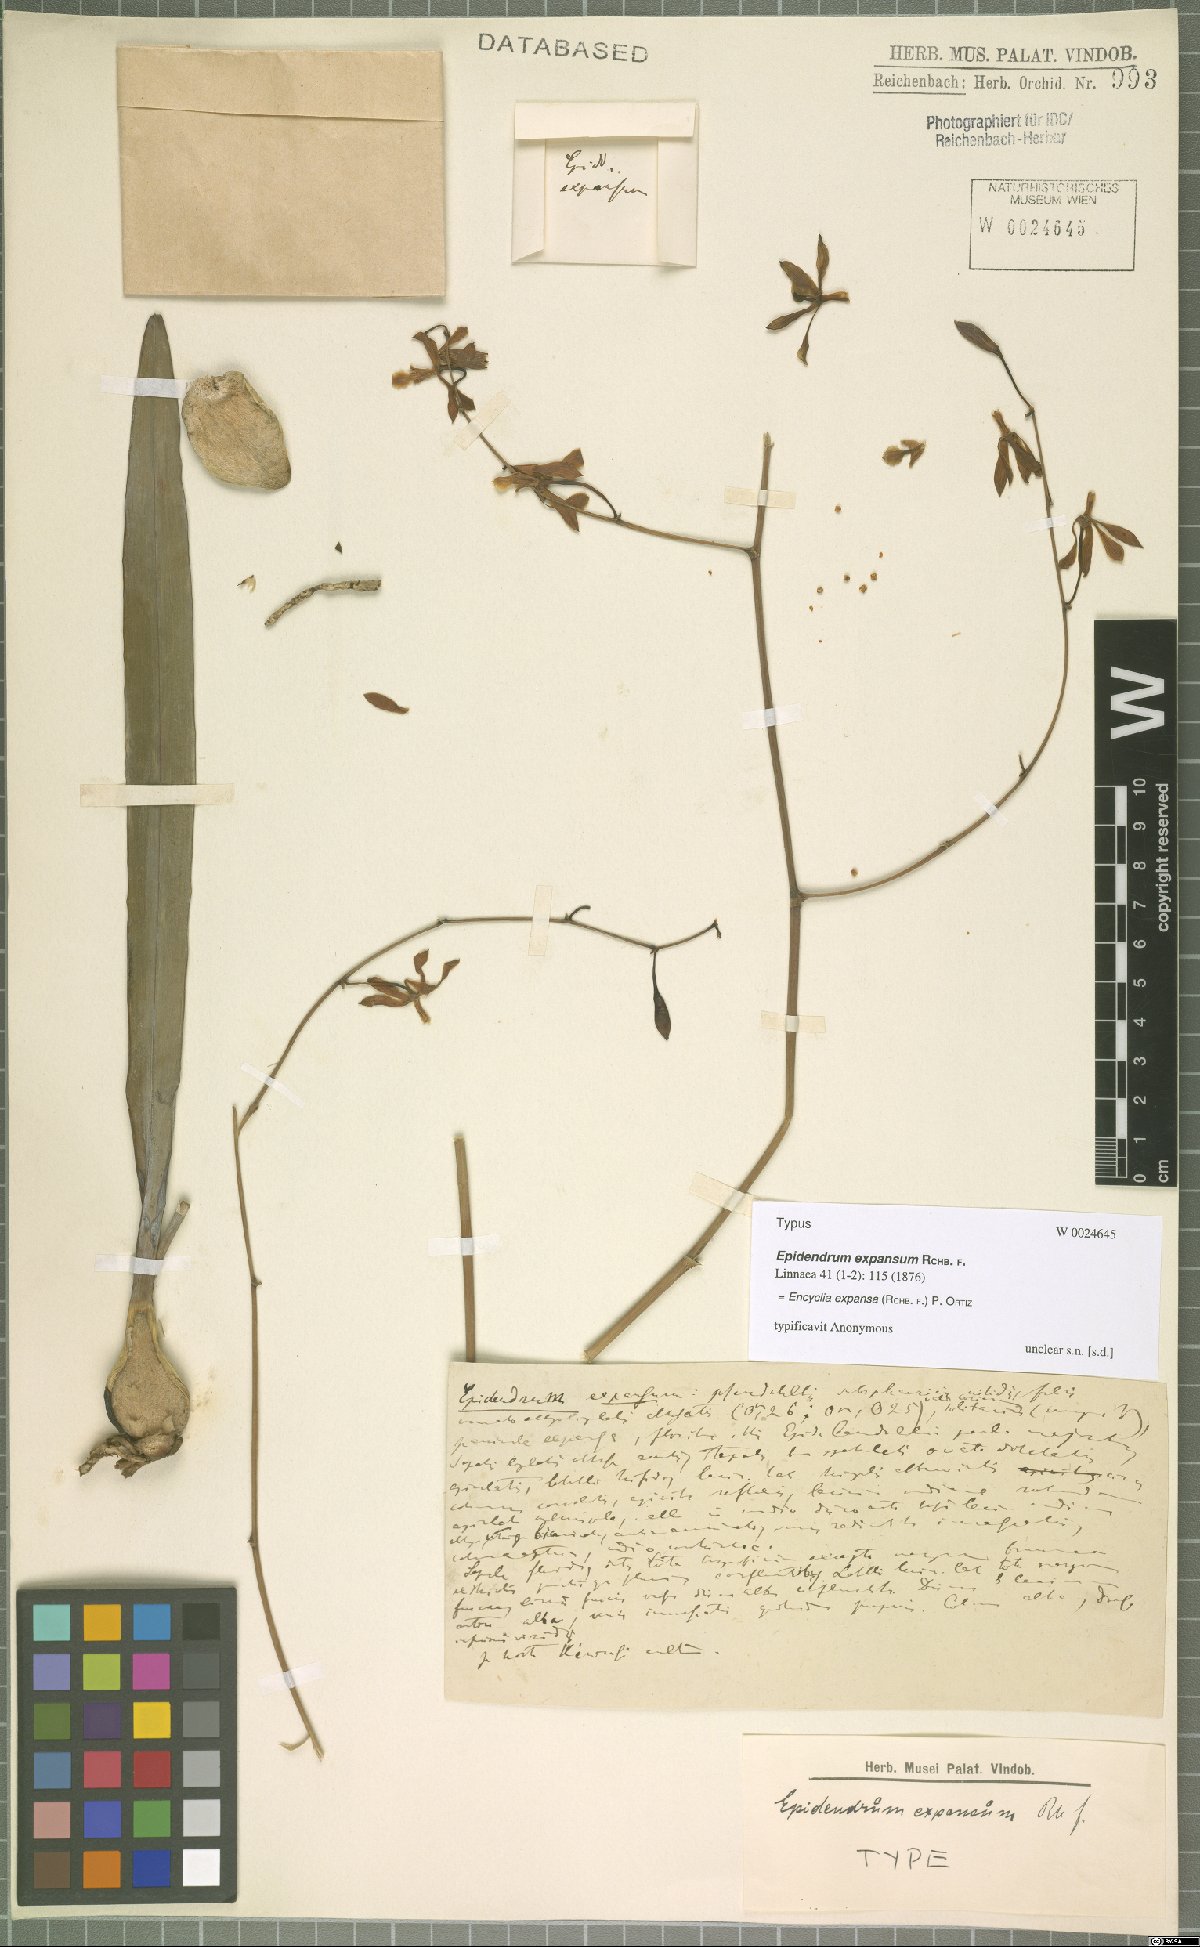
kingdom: Plantae
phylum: Tracheophyta
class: Liliopsida
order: Asparagales
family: Orchidaceae
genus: Encyclia
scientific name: Encyclia replicata
